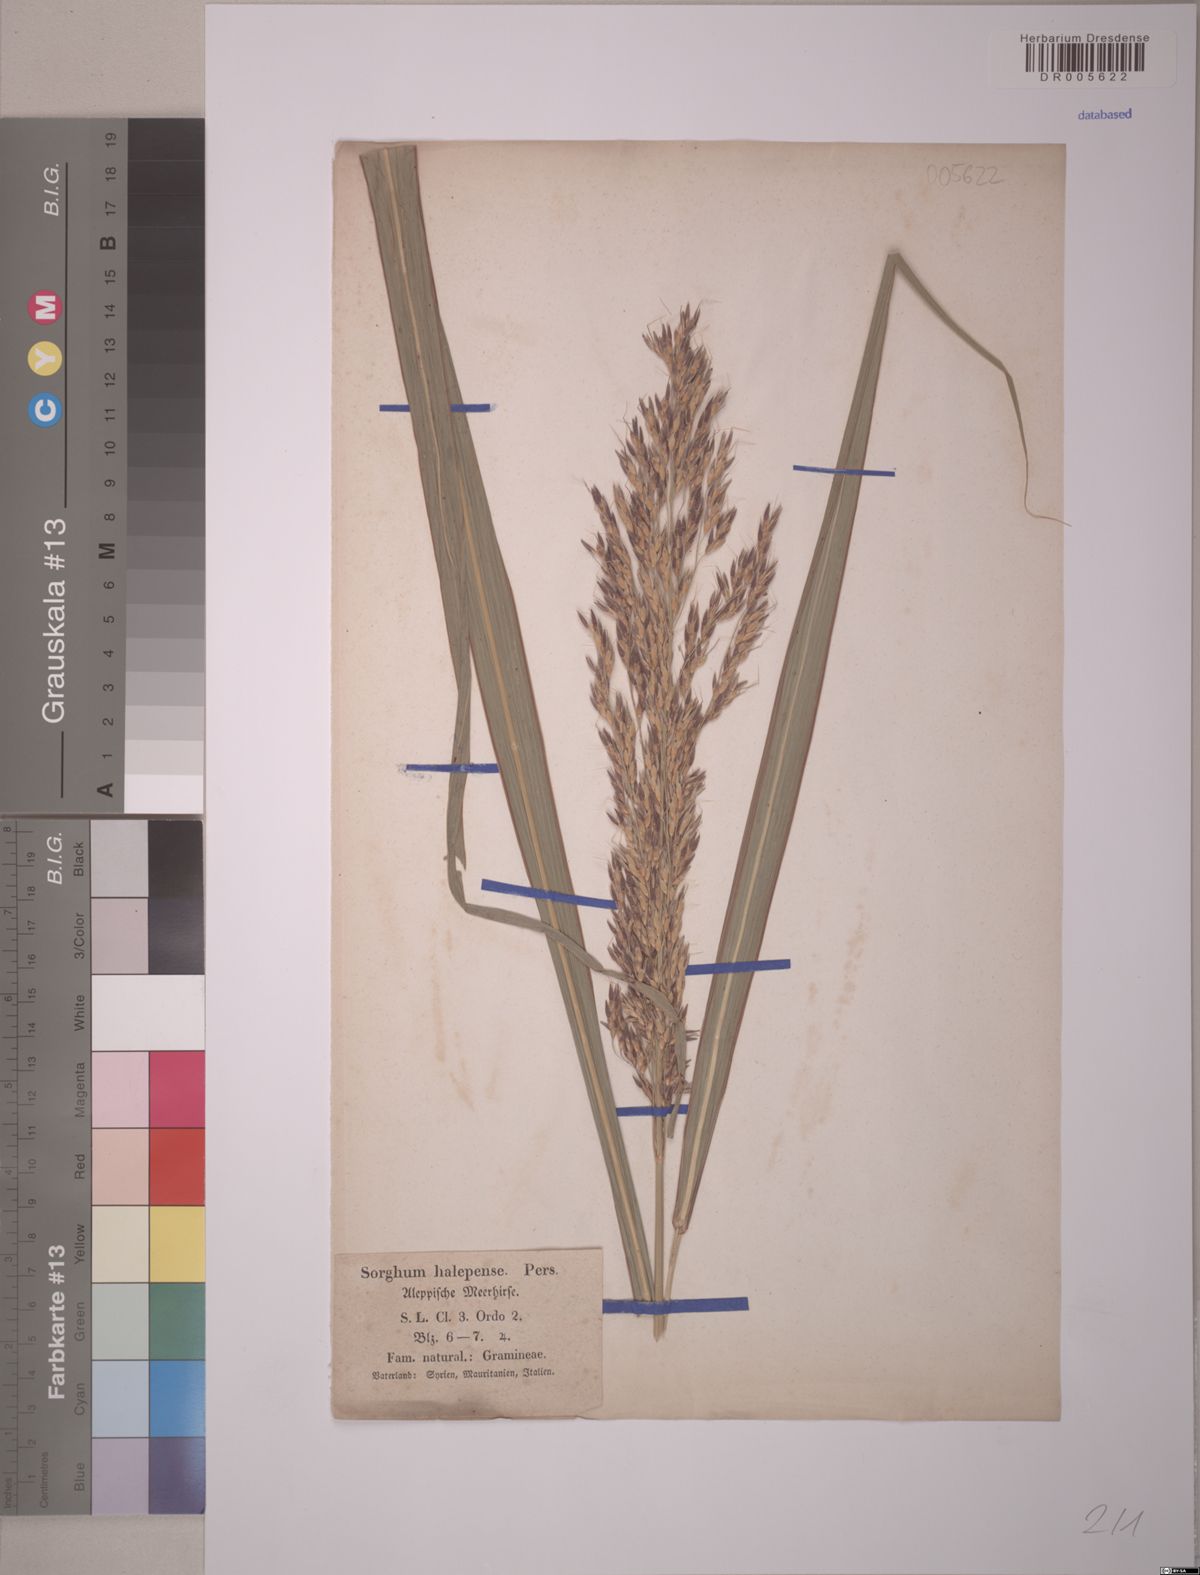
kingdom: Plantae
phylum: Tracheophyta
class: Liliopsida
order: Poales
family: Poaceae
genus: Sorghum
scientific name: Sorghum halepense
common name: Johnson-grass
